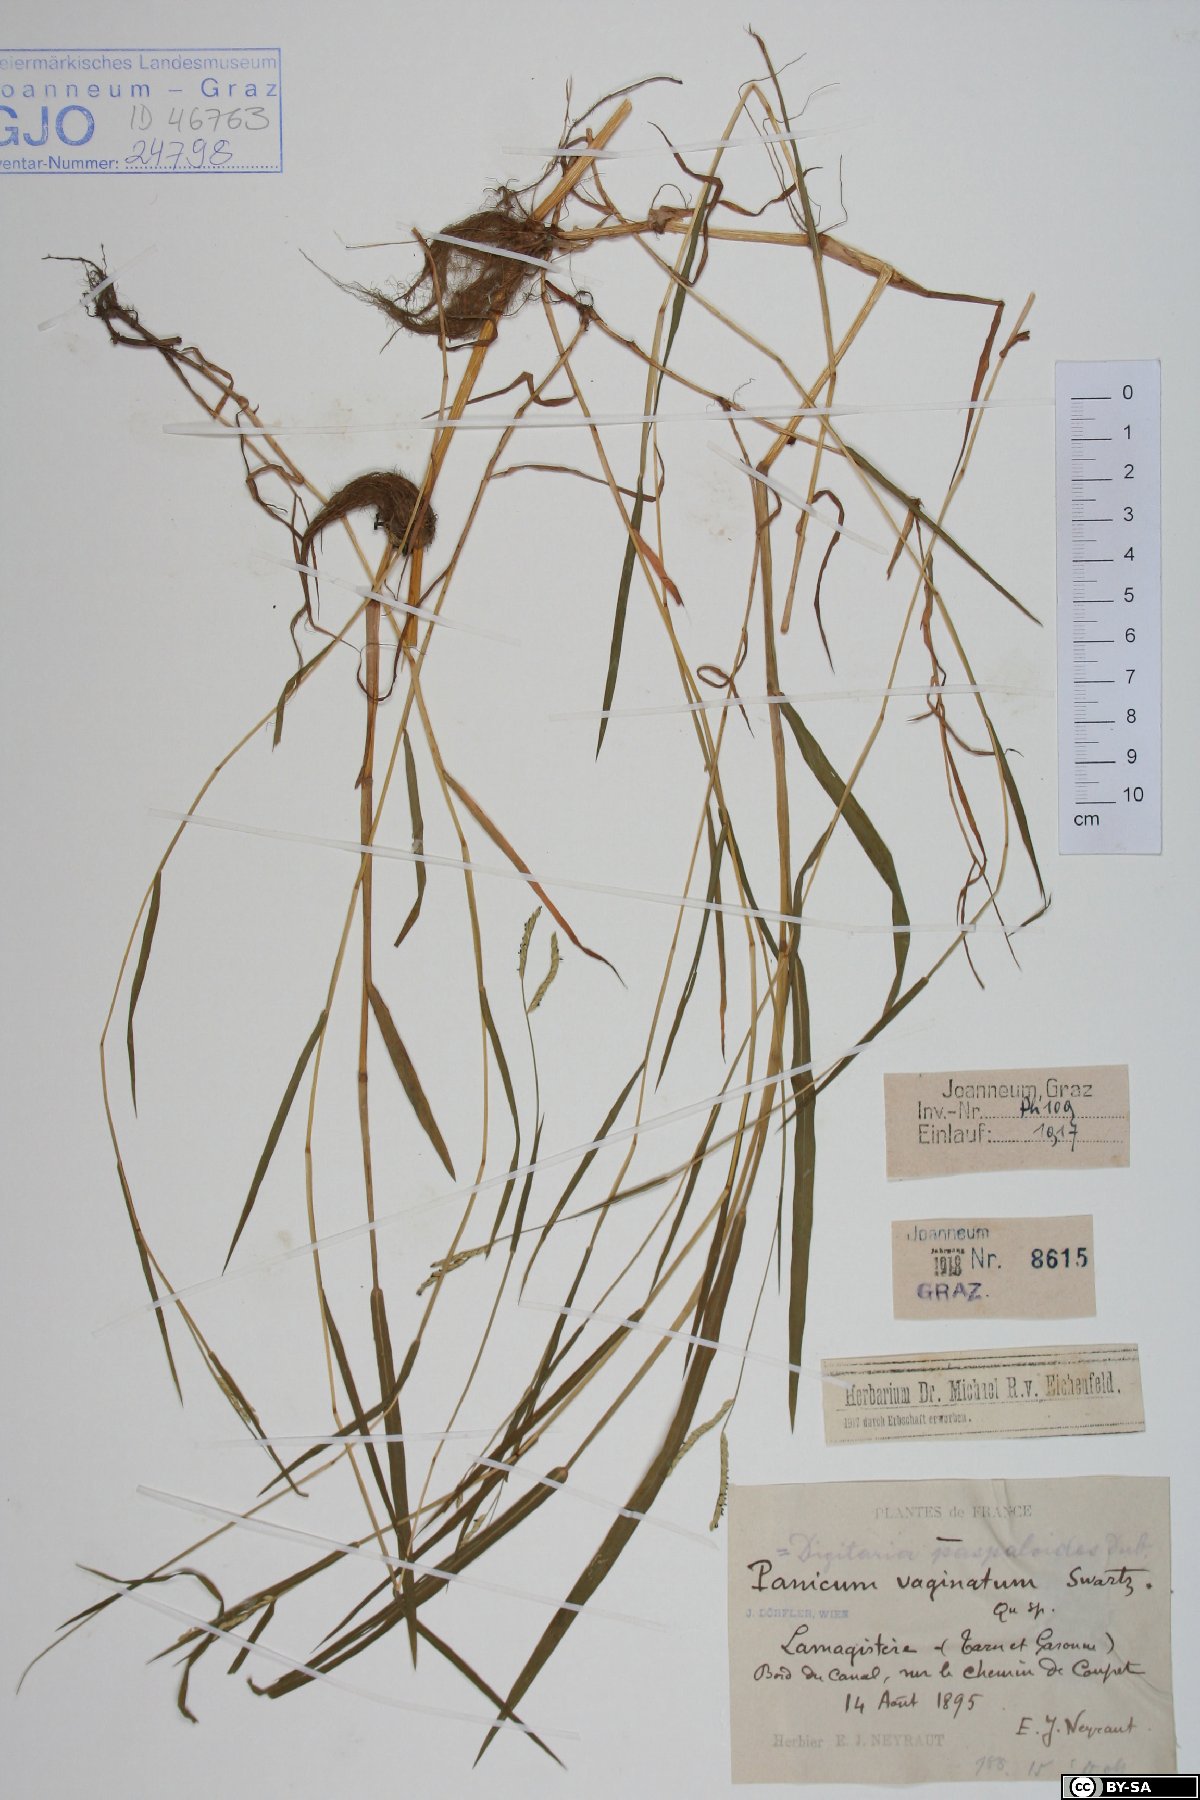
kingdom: Plantae
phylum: Tracheophyta
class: Liliopsida
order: Poales
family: Poaceae
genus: Paspalum
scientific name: Paspalum vaginatum
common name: Seashore paspalum
